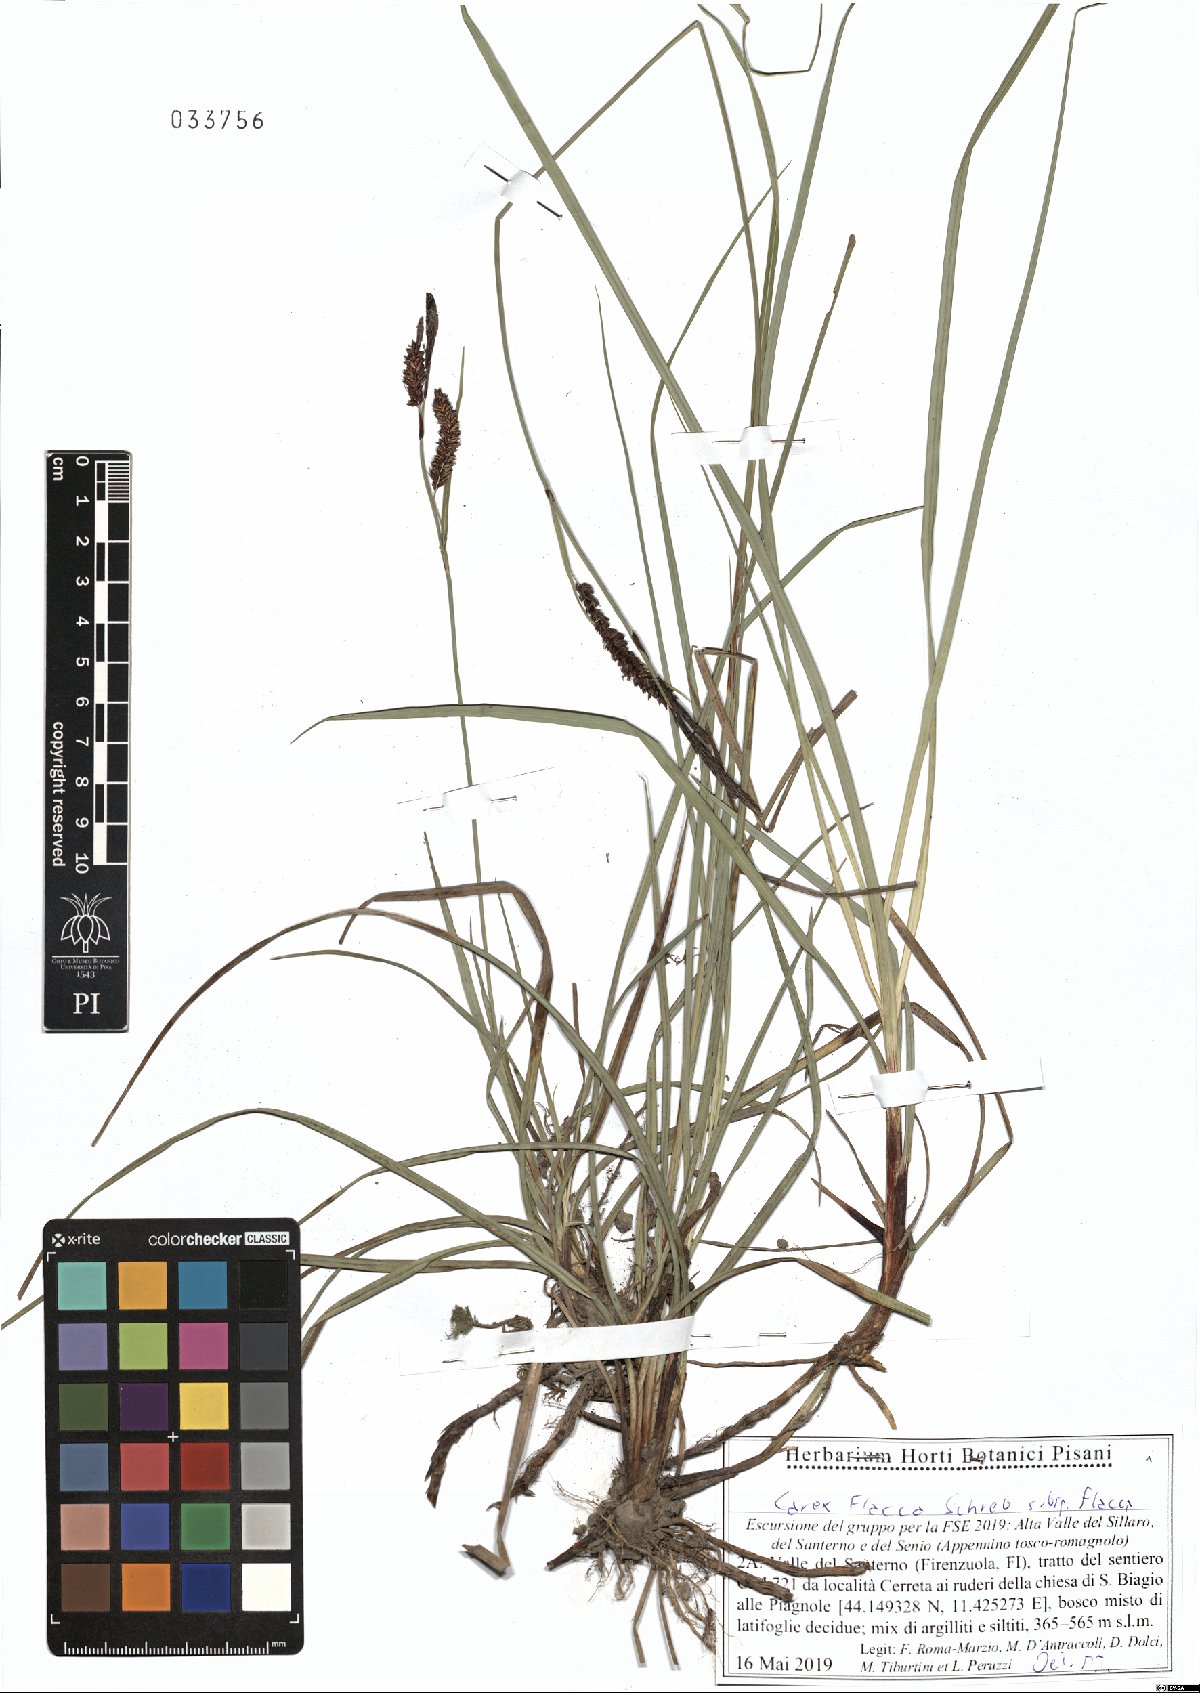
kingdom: Plantae
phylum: Tracheophyta
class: Liliopsida
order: Poales
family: Cyperaceae
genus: Carex
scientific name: Carex flacca
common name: Glaucous sedge
